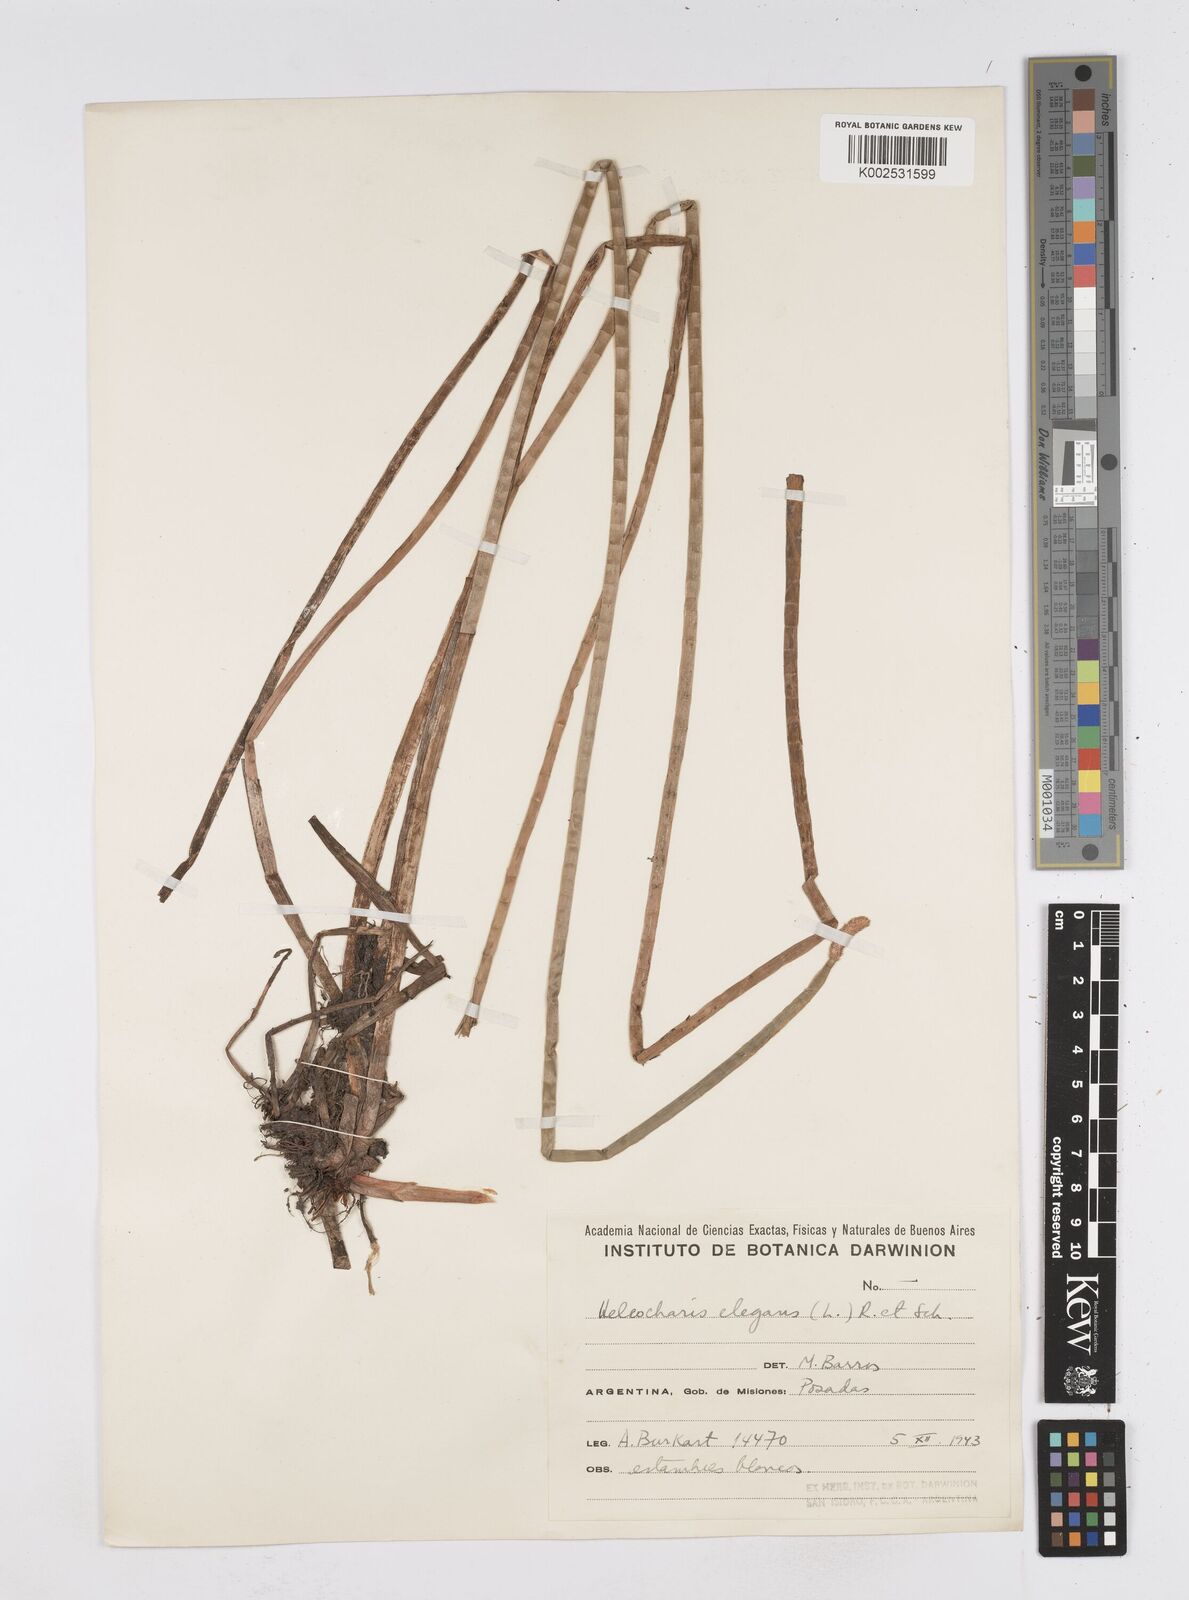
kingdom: Plantae
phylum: Tracheophyta
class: Liliopsida
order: Poales
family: Cyperaceae
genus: Eleocharis
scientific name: Eleocharis elegans
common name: Elegant spike-rush
